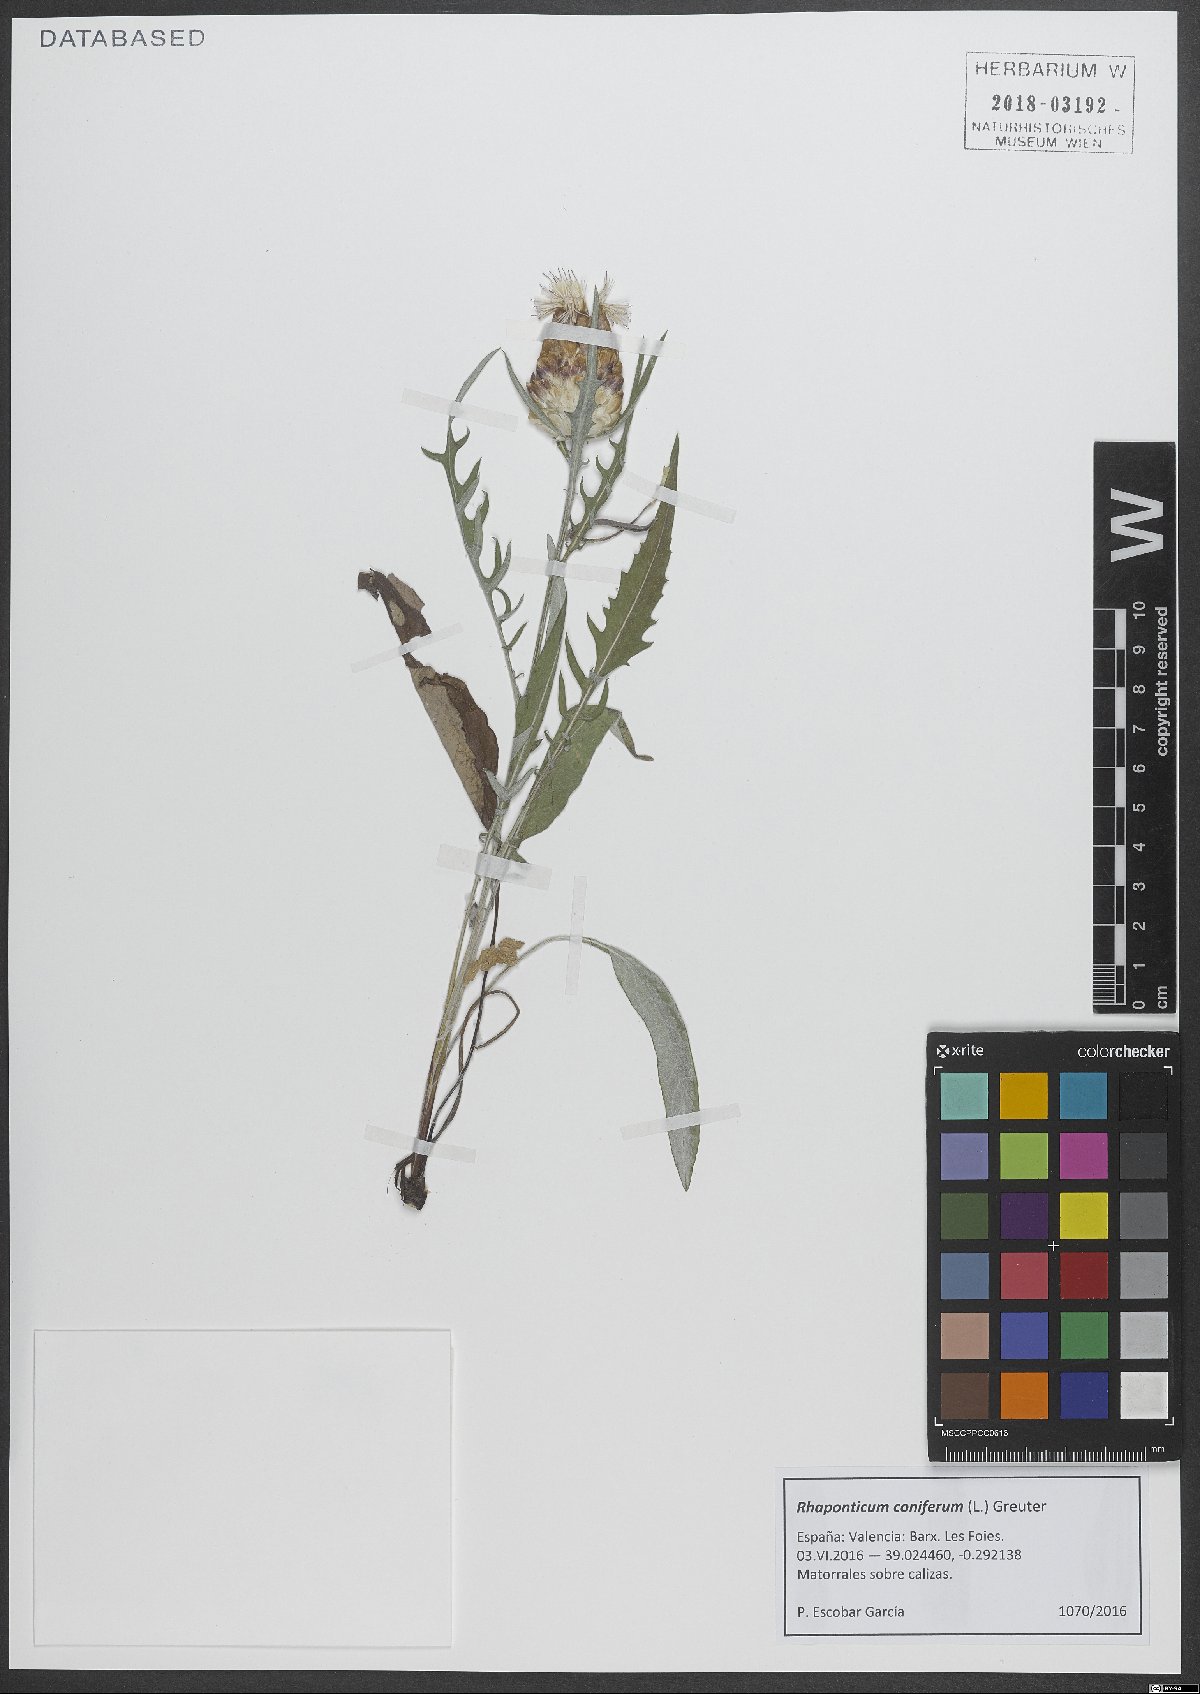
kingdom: Plantae
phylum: Tracheophyta
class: Magnoliopsida
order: Asterales
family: Asteraceae
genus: Leuzea
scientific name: Leuzea conifera
